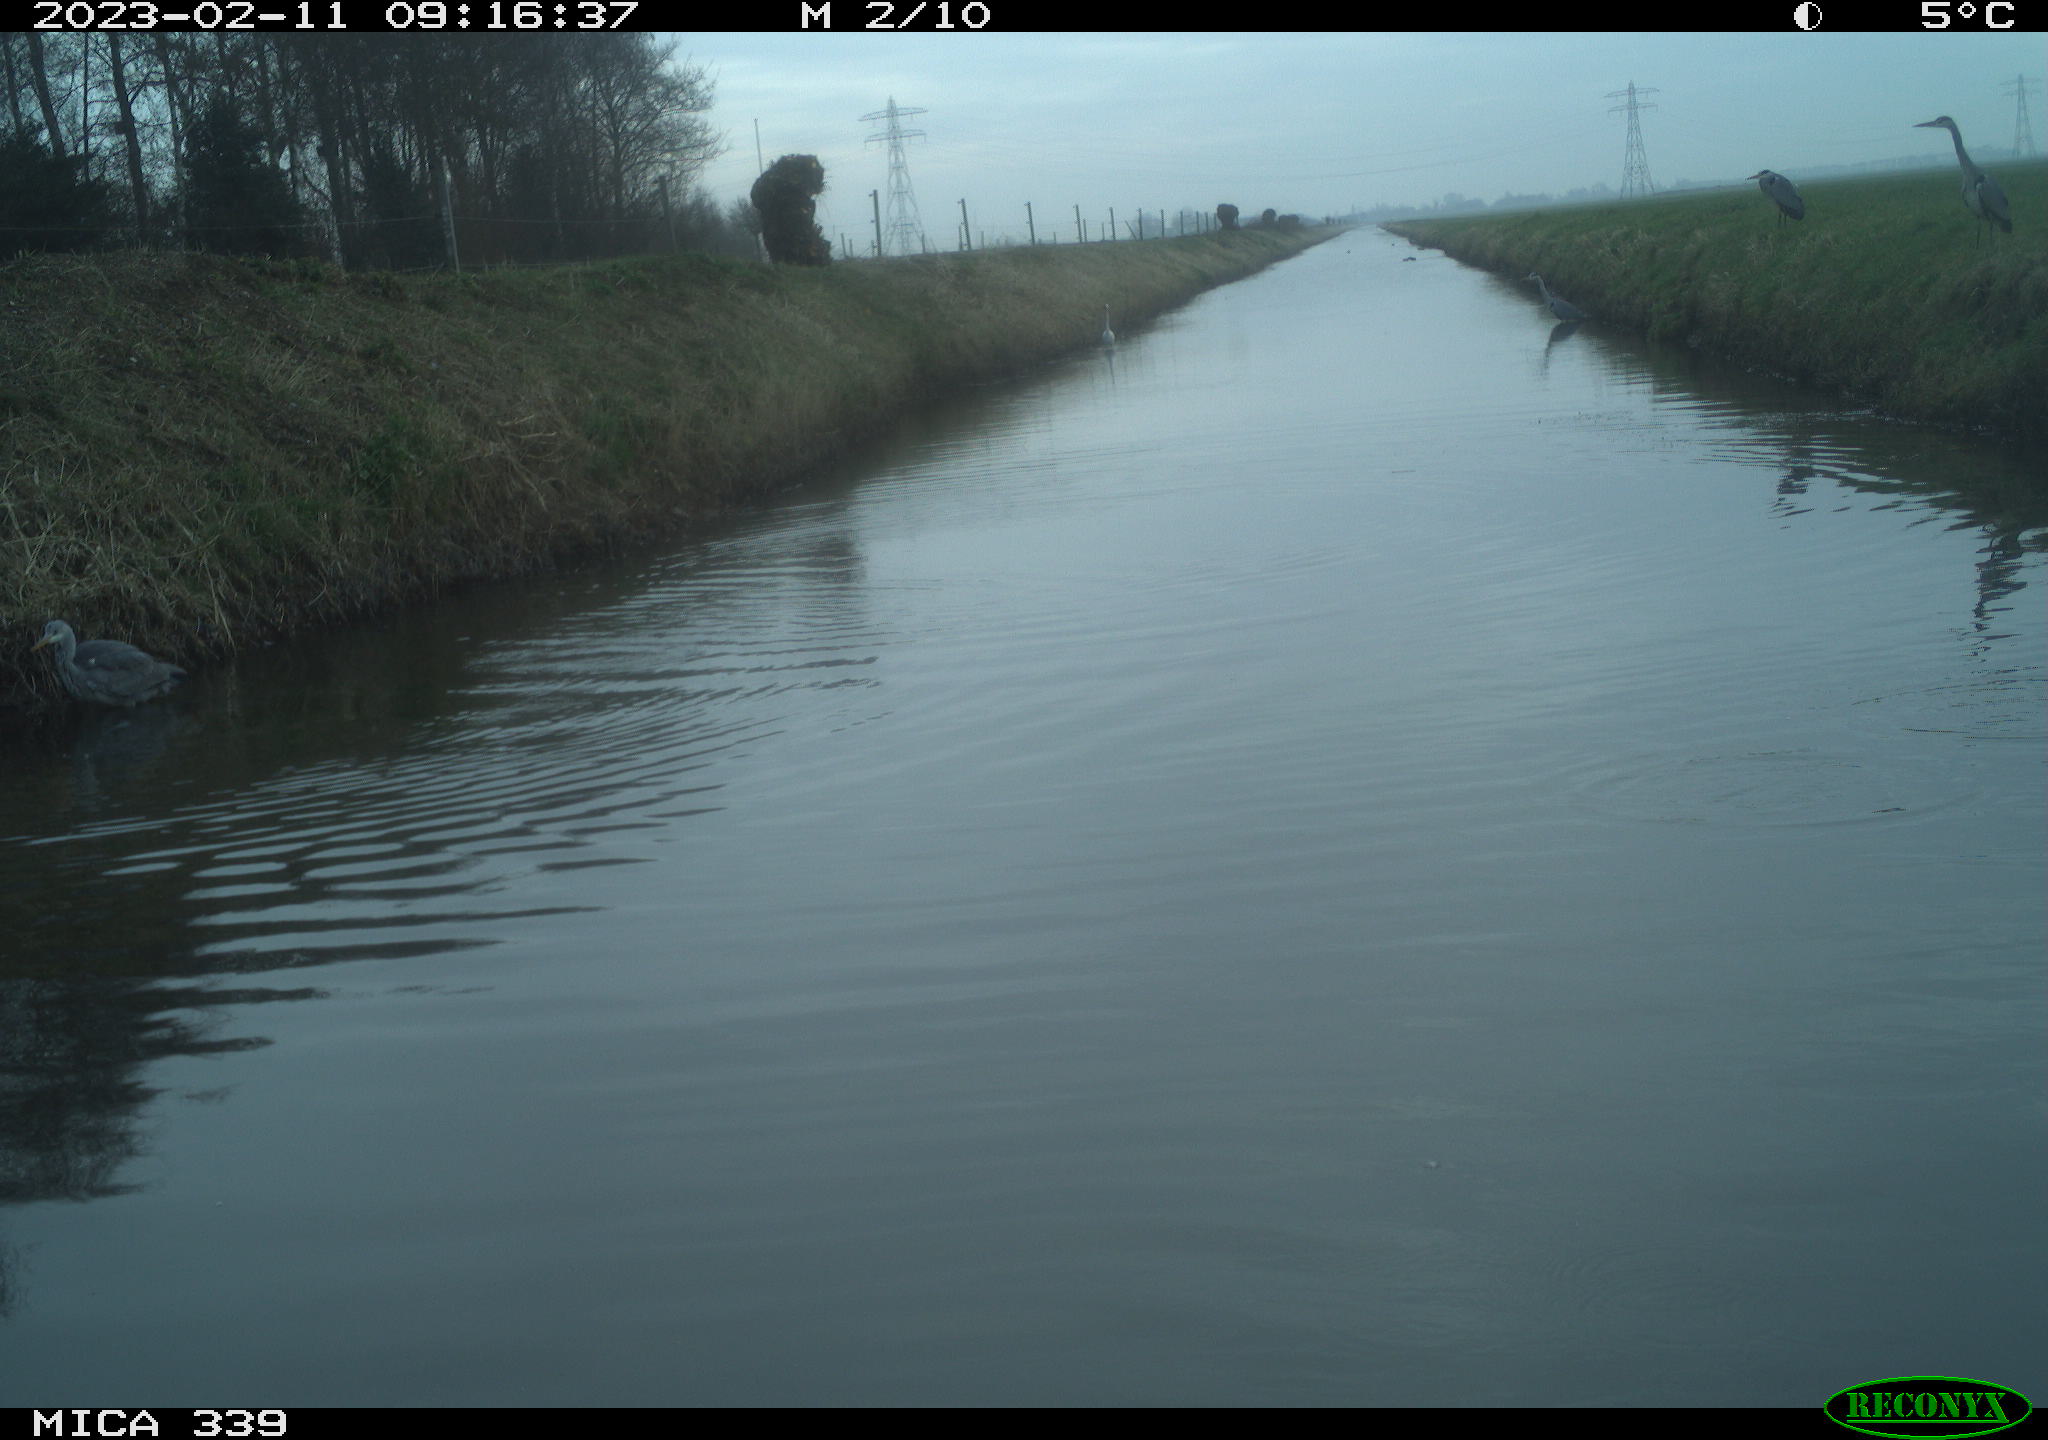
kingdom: Animalia
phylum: Chordata
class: Aves
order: Suliformes
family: Phalacrocoracidae
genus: Phalacrocorax
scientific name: Phalacrocorax carbo
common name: Great cormorant
